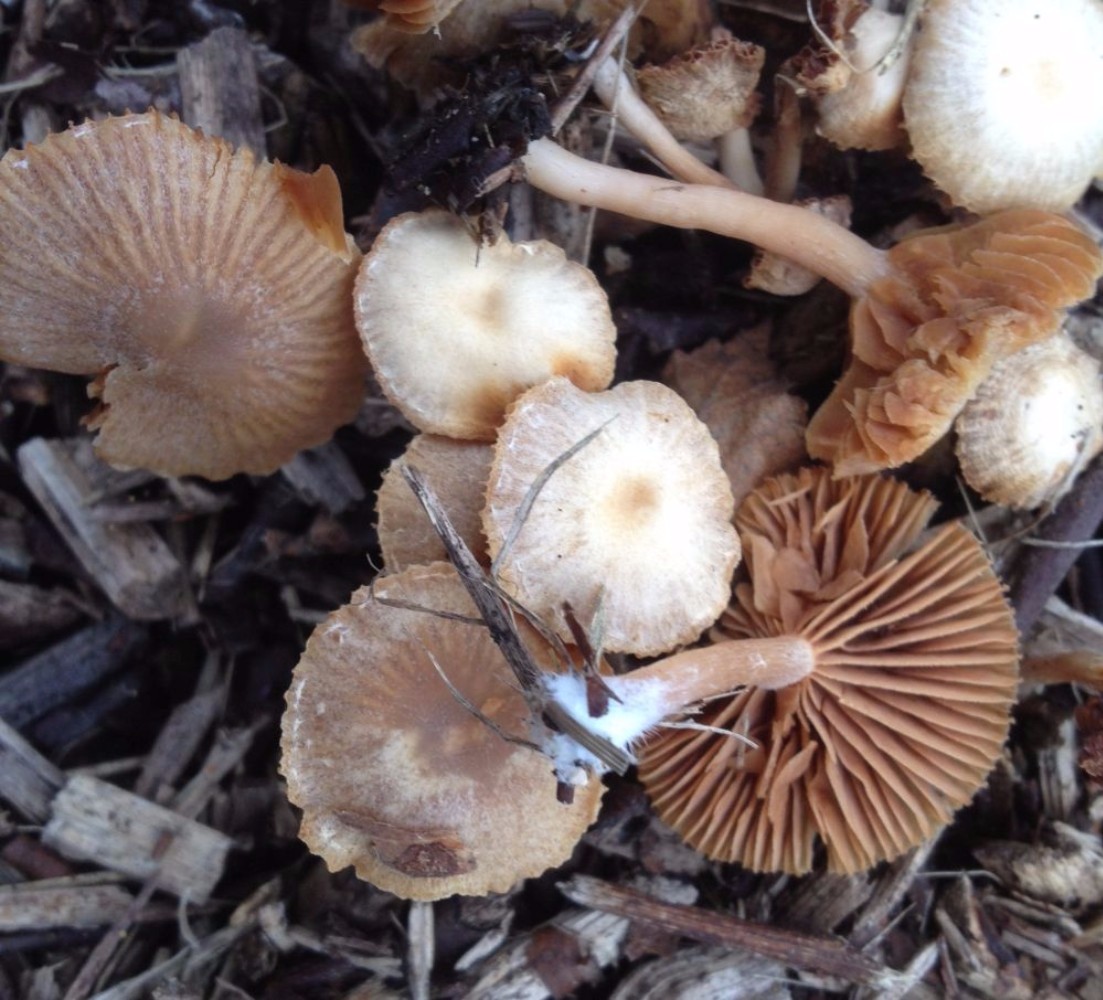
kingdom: Fungi
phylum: Basidiomycota
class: Agaricomycetes
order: Agaricales
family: Tubariaceae
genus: Tubaria
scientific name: Tubaria furfuracea
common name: kliddet fnughat
